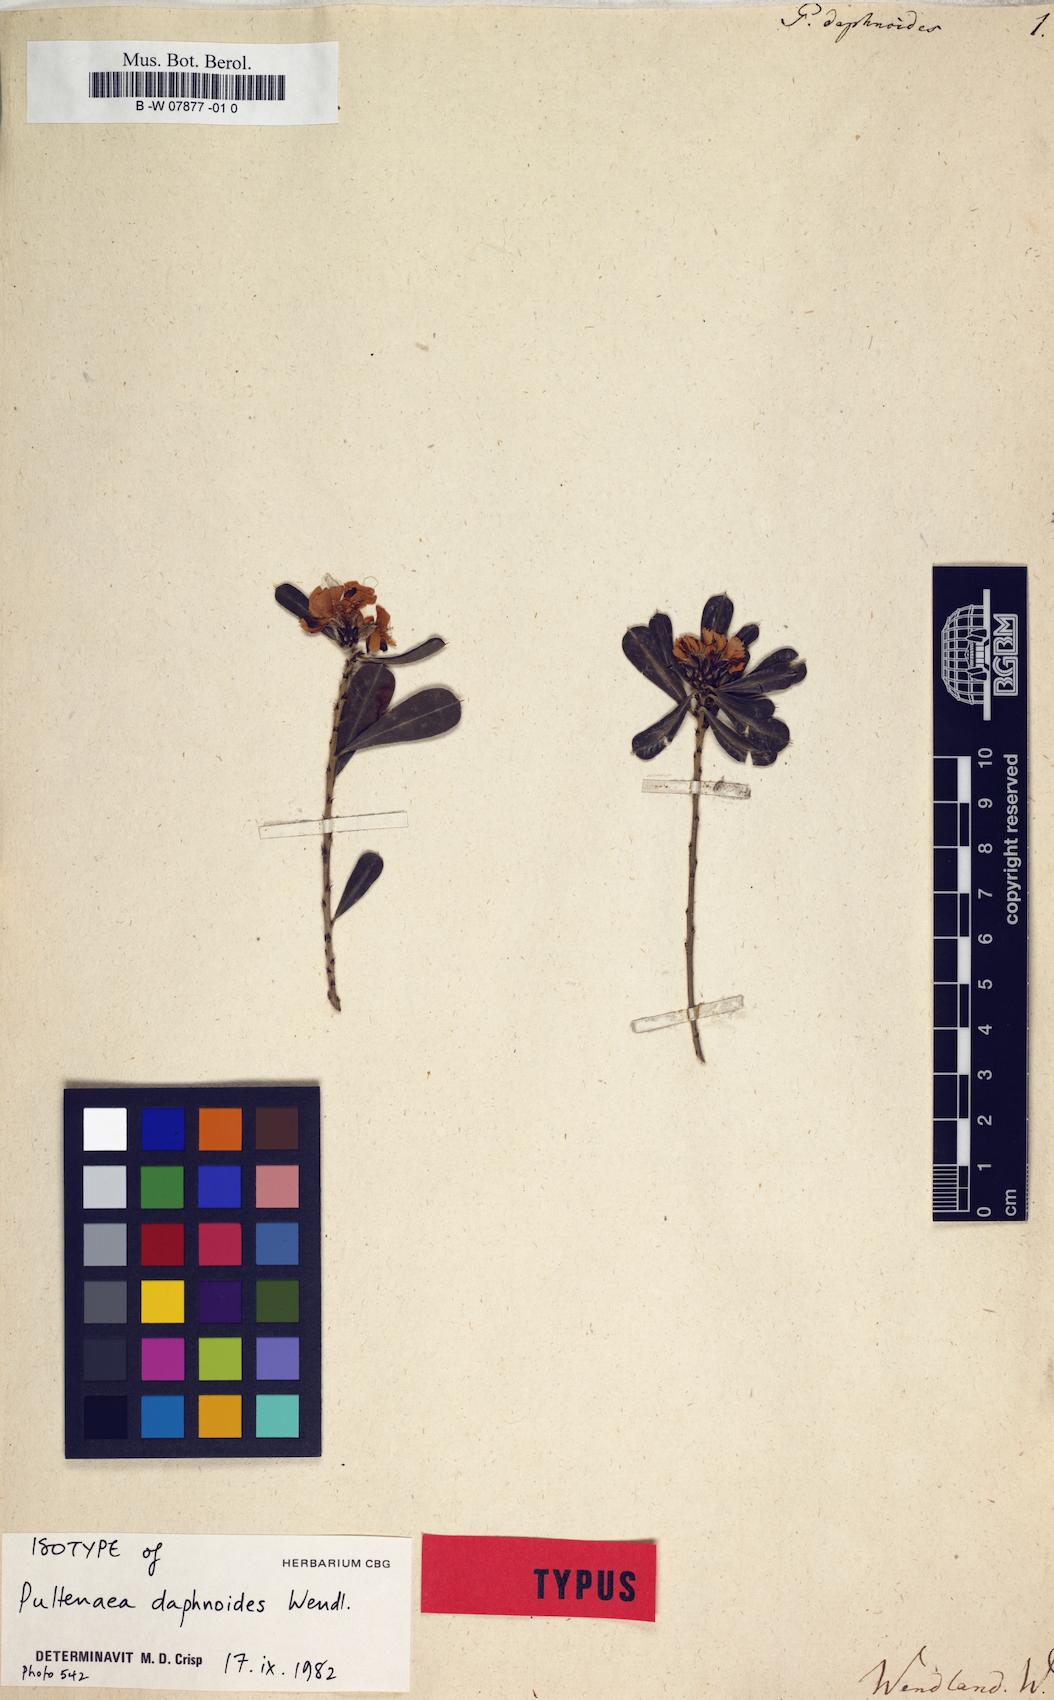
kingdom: Plantae
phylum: Tracheophyta
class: Magnoliopsida
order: Fabales
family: Fabaceae
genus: Pultenaea
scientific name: Pultenaea daphnoides
